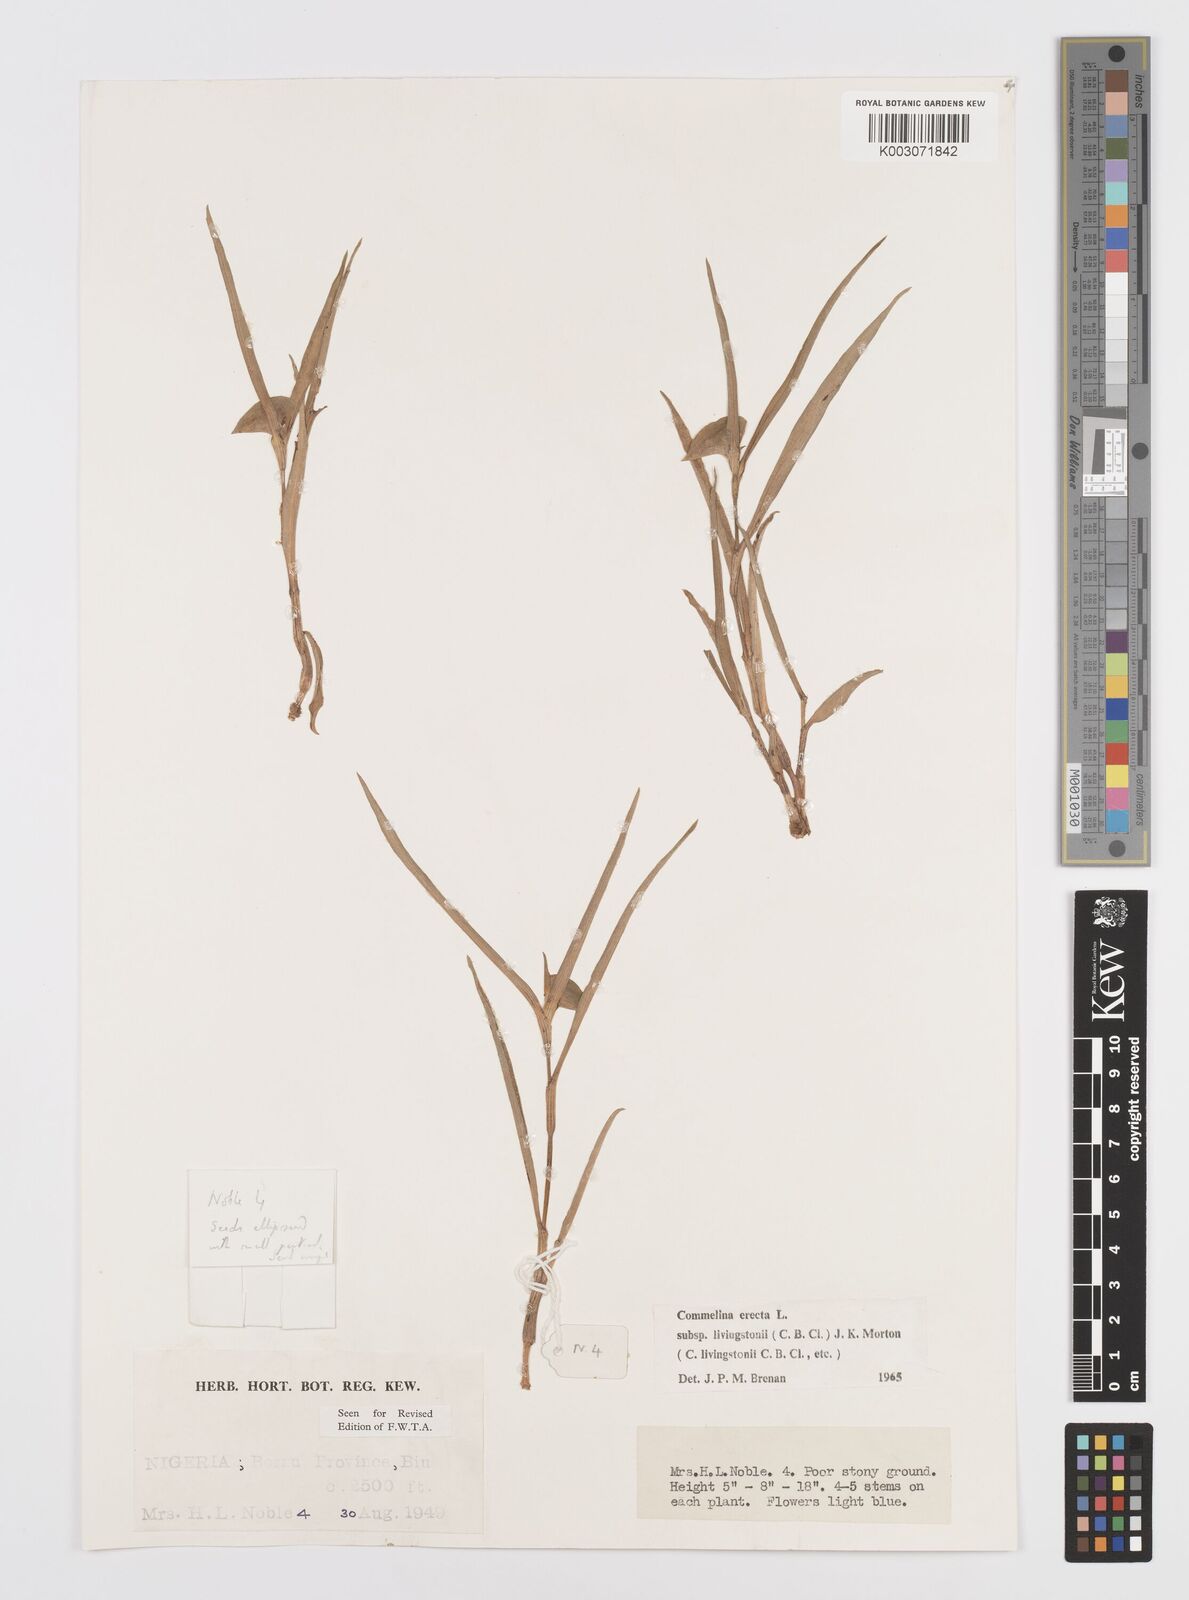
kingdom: Plantae
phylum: Tracheophyta
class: Liliopsida
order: Commelinales
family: Commelinaceae
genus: Commelina
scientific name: Commelina erecta
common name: Blousel blommetjie
